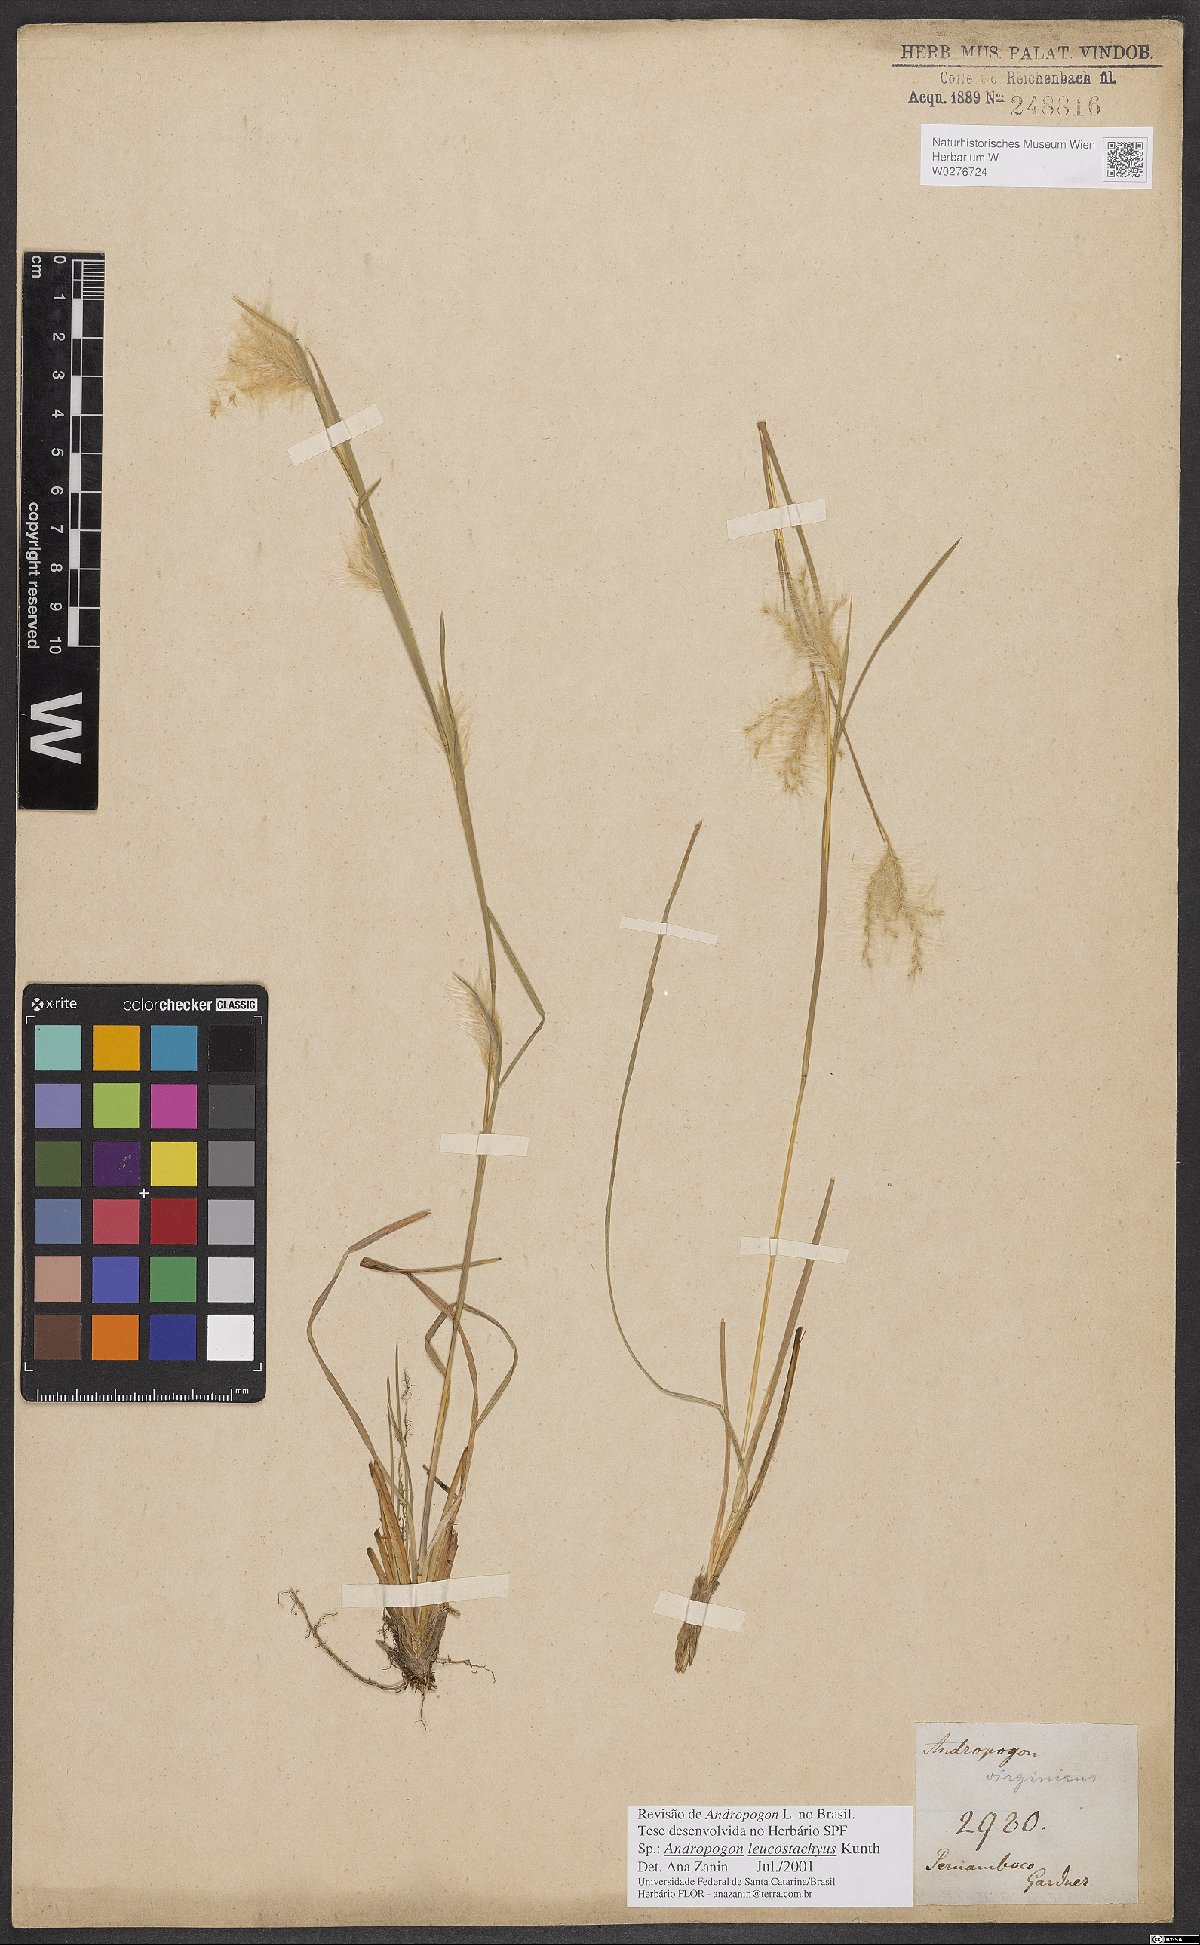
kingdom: Plantae
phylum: Tracheophyta
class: Liliopsida
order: Poales
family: Poaceae
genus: Andropogon
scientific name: Andropogon leucostachyus
